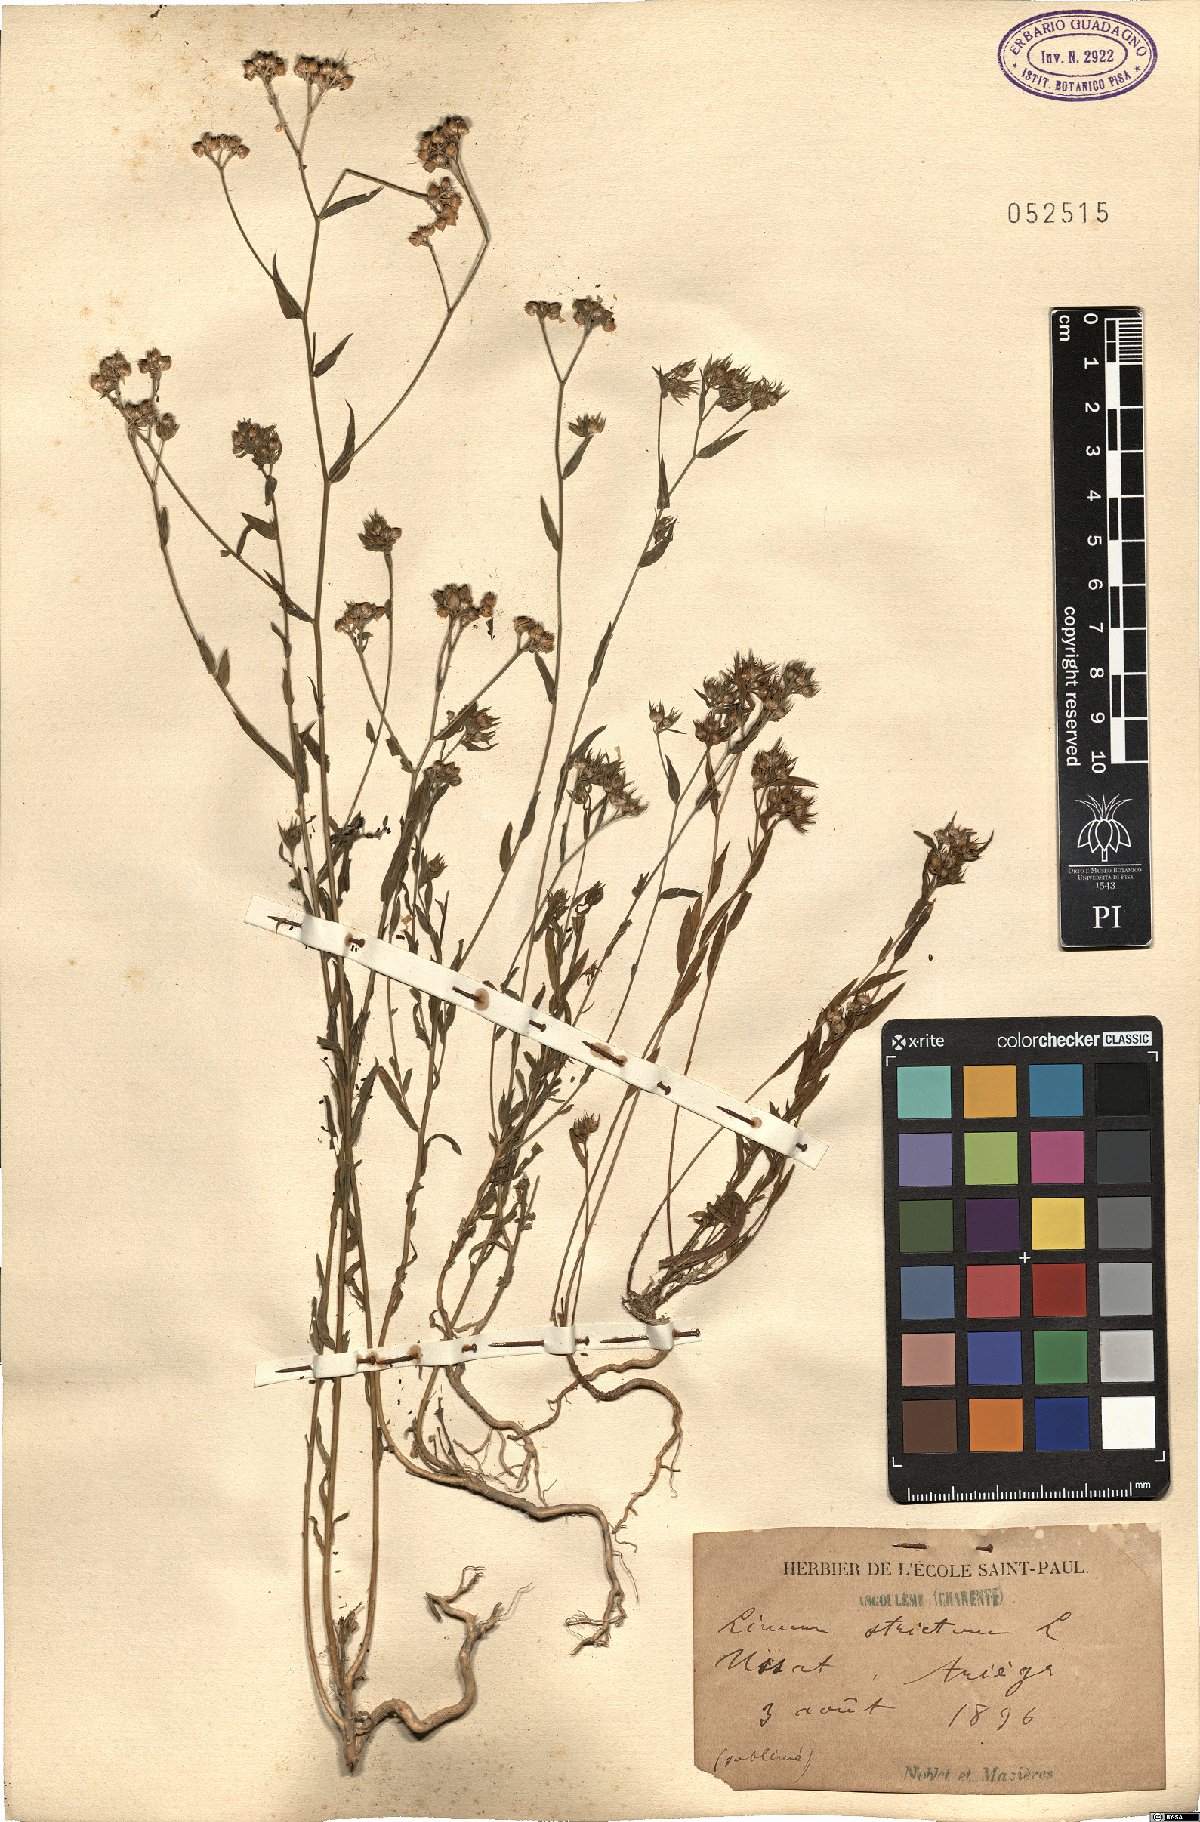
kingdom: Plantae
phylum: Tracheophyta
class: Magnoliopsida
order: Malpighiales
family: Linaceae
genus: Linum
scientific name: Linum strictum
